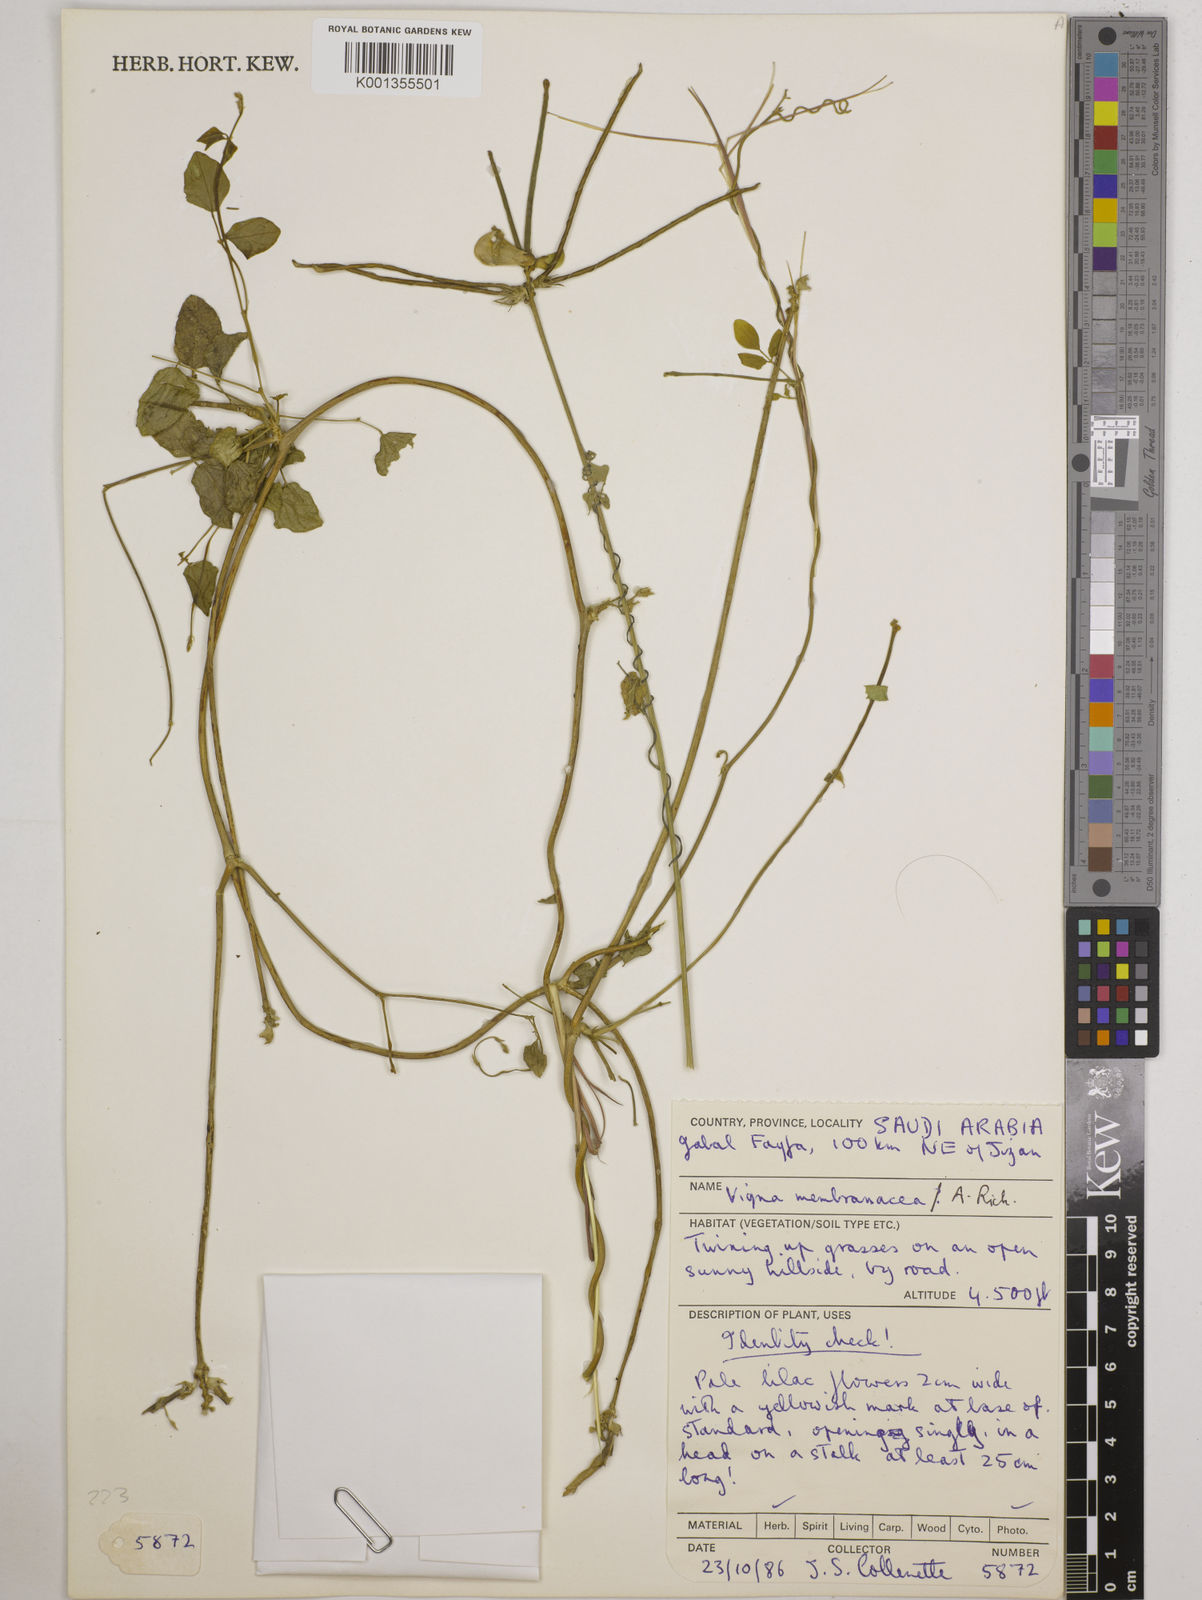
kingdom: Plantae
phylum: Tracheophyta
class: Magnoliopsida
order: Fabales
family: Fabaceae
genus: Vigna
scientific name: Vigna membranacea
